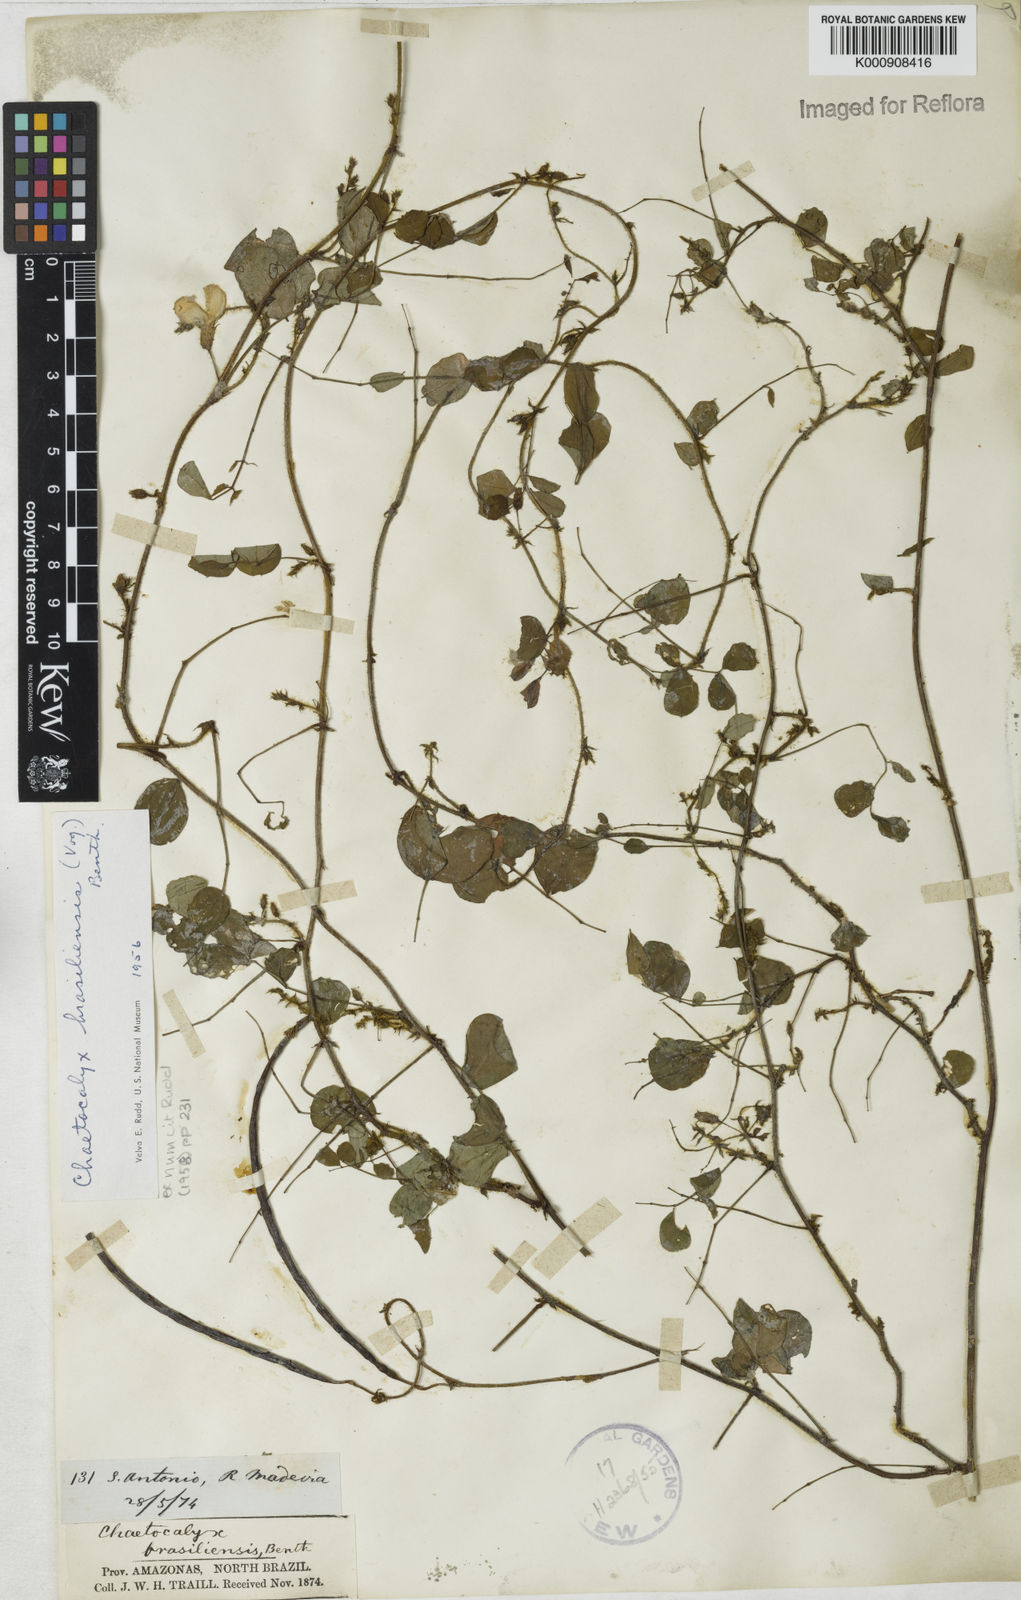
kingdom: Plantae
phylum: Tracheophyta
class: Magnoliopsida
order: Fabales
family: Fabaceae
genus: Nissolia
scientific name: Nissolia brasiliensis
